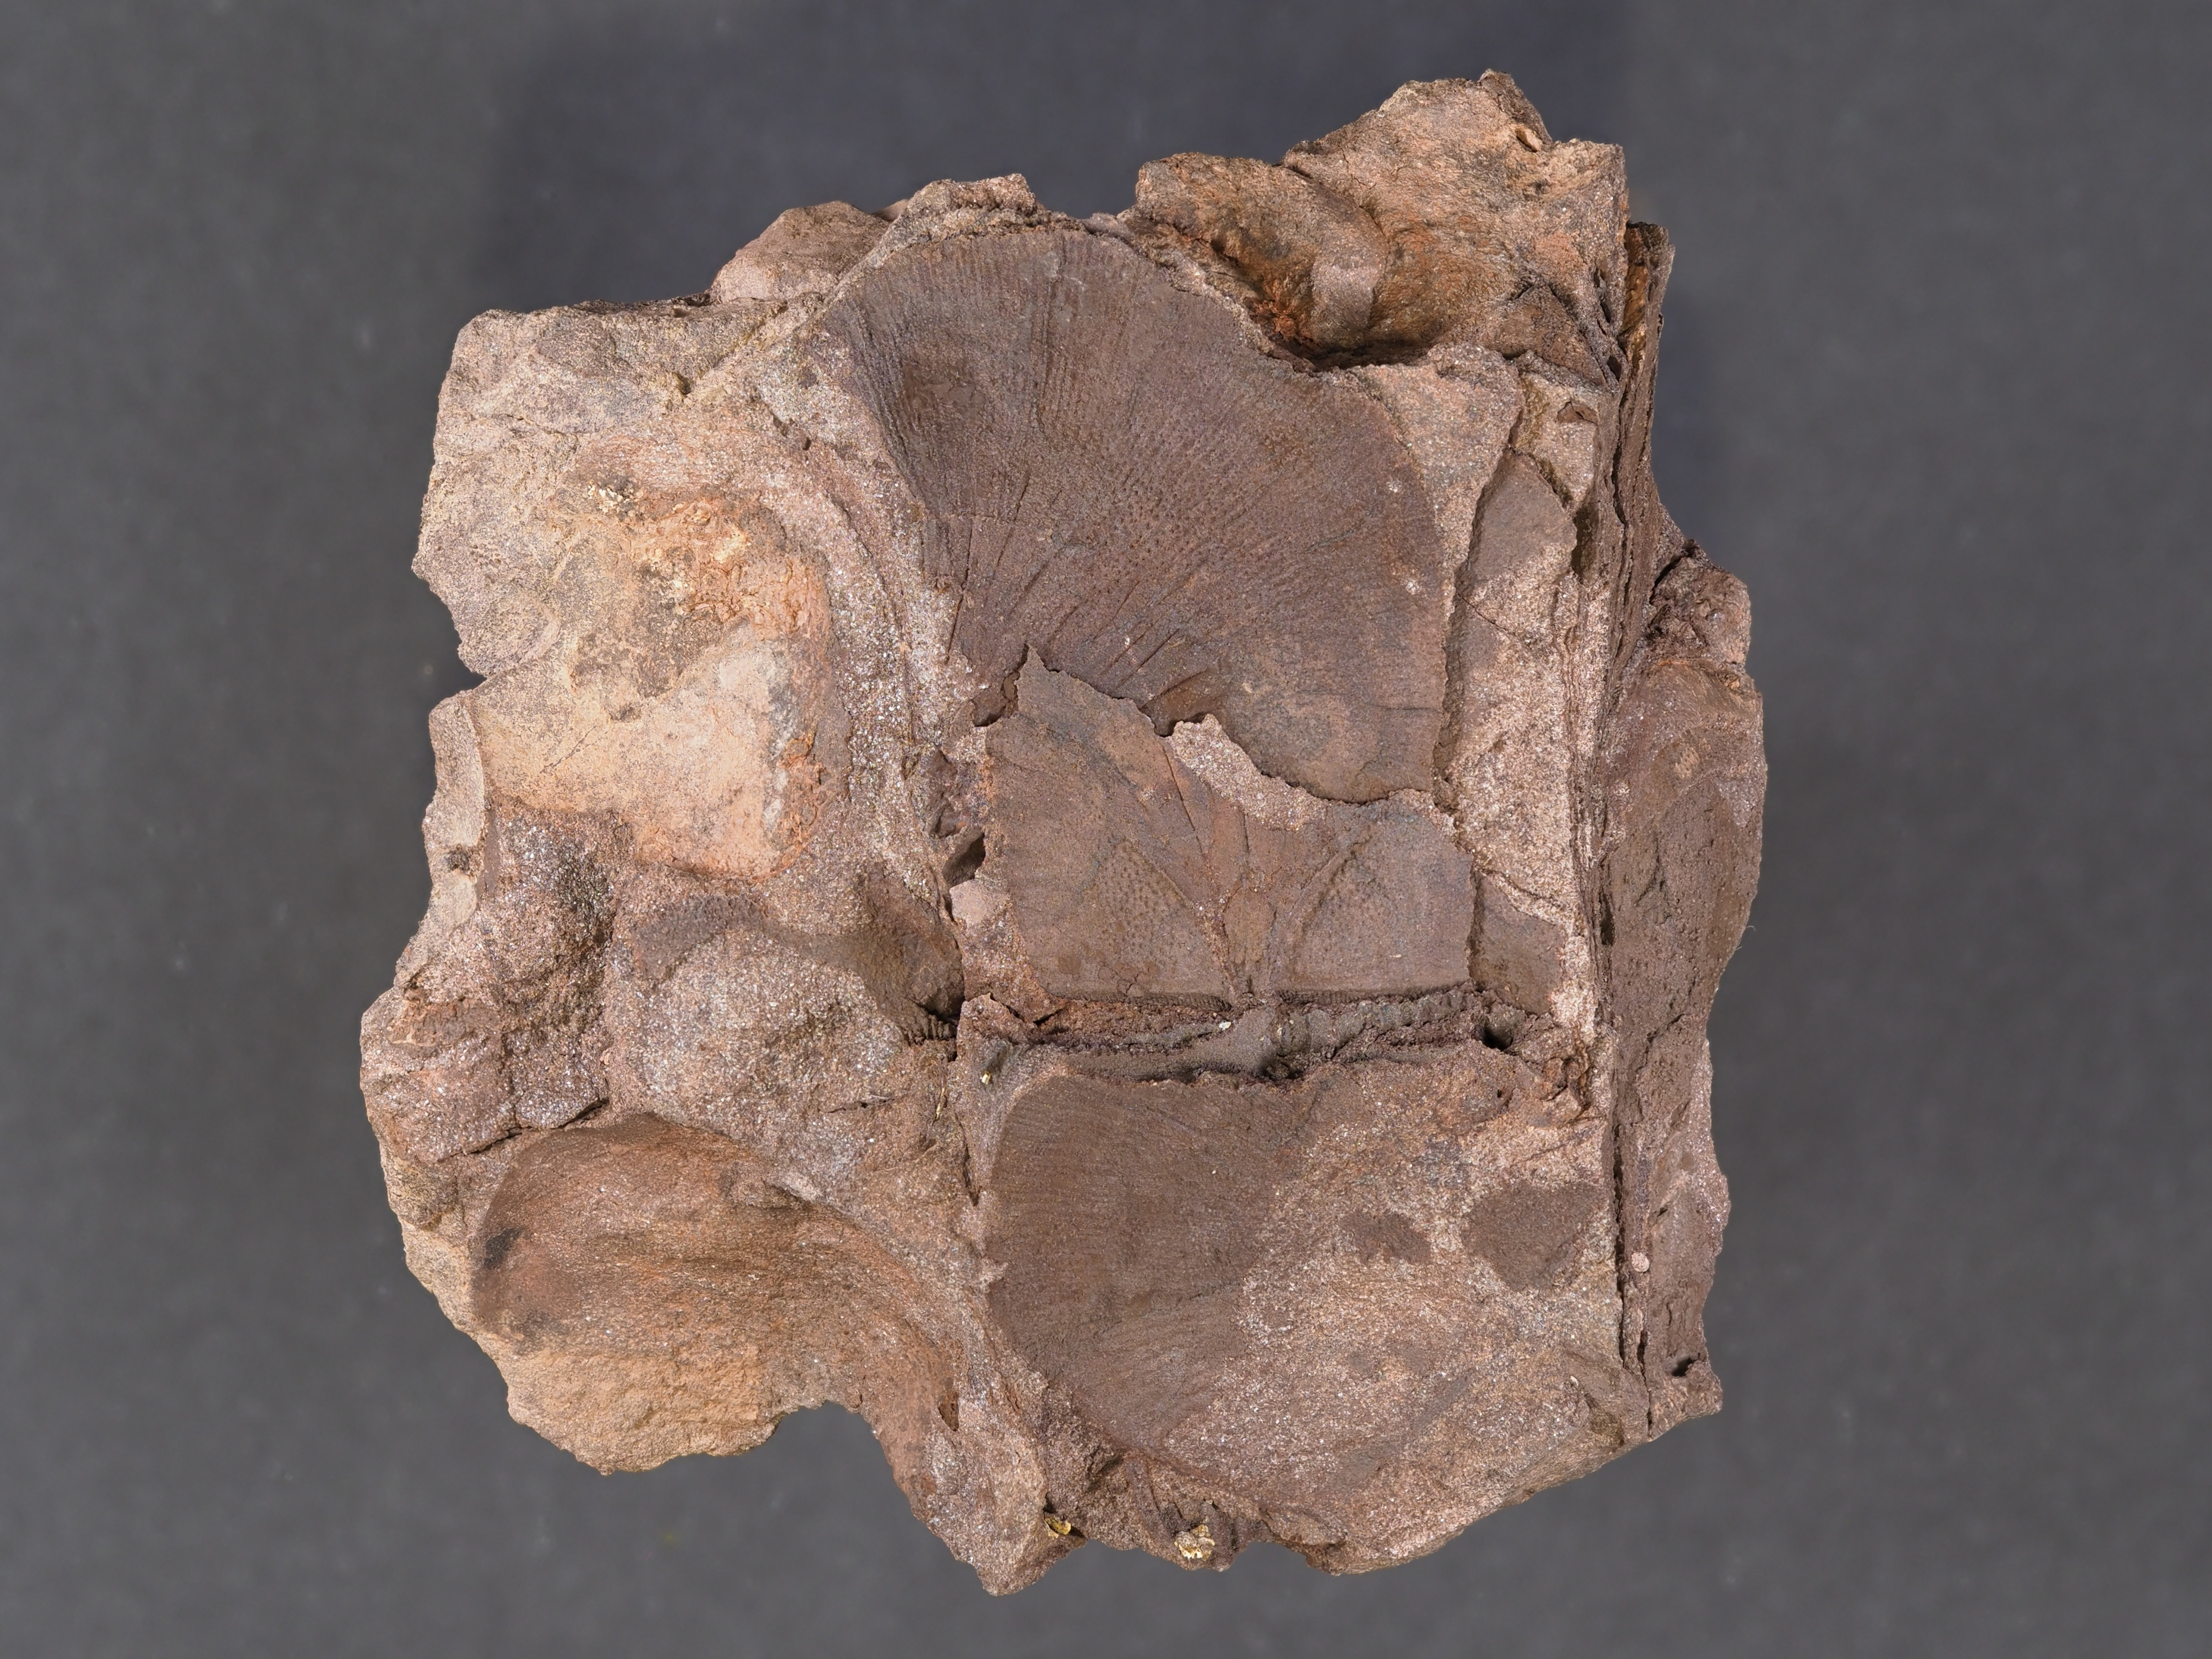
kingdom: Animalia
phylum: Brachiopoda
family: Leptostrophiidae
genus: Leptostrophiella
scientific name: Leptostrophiella
